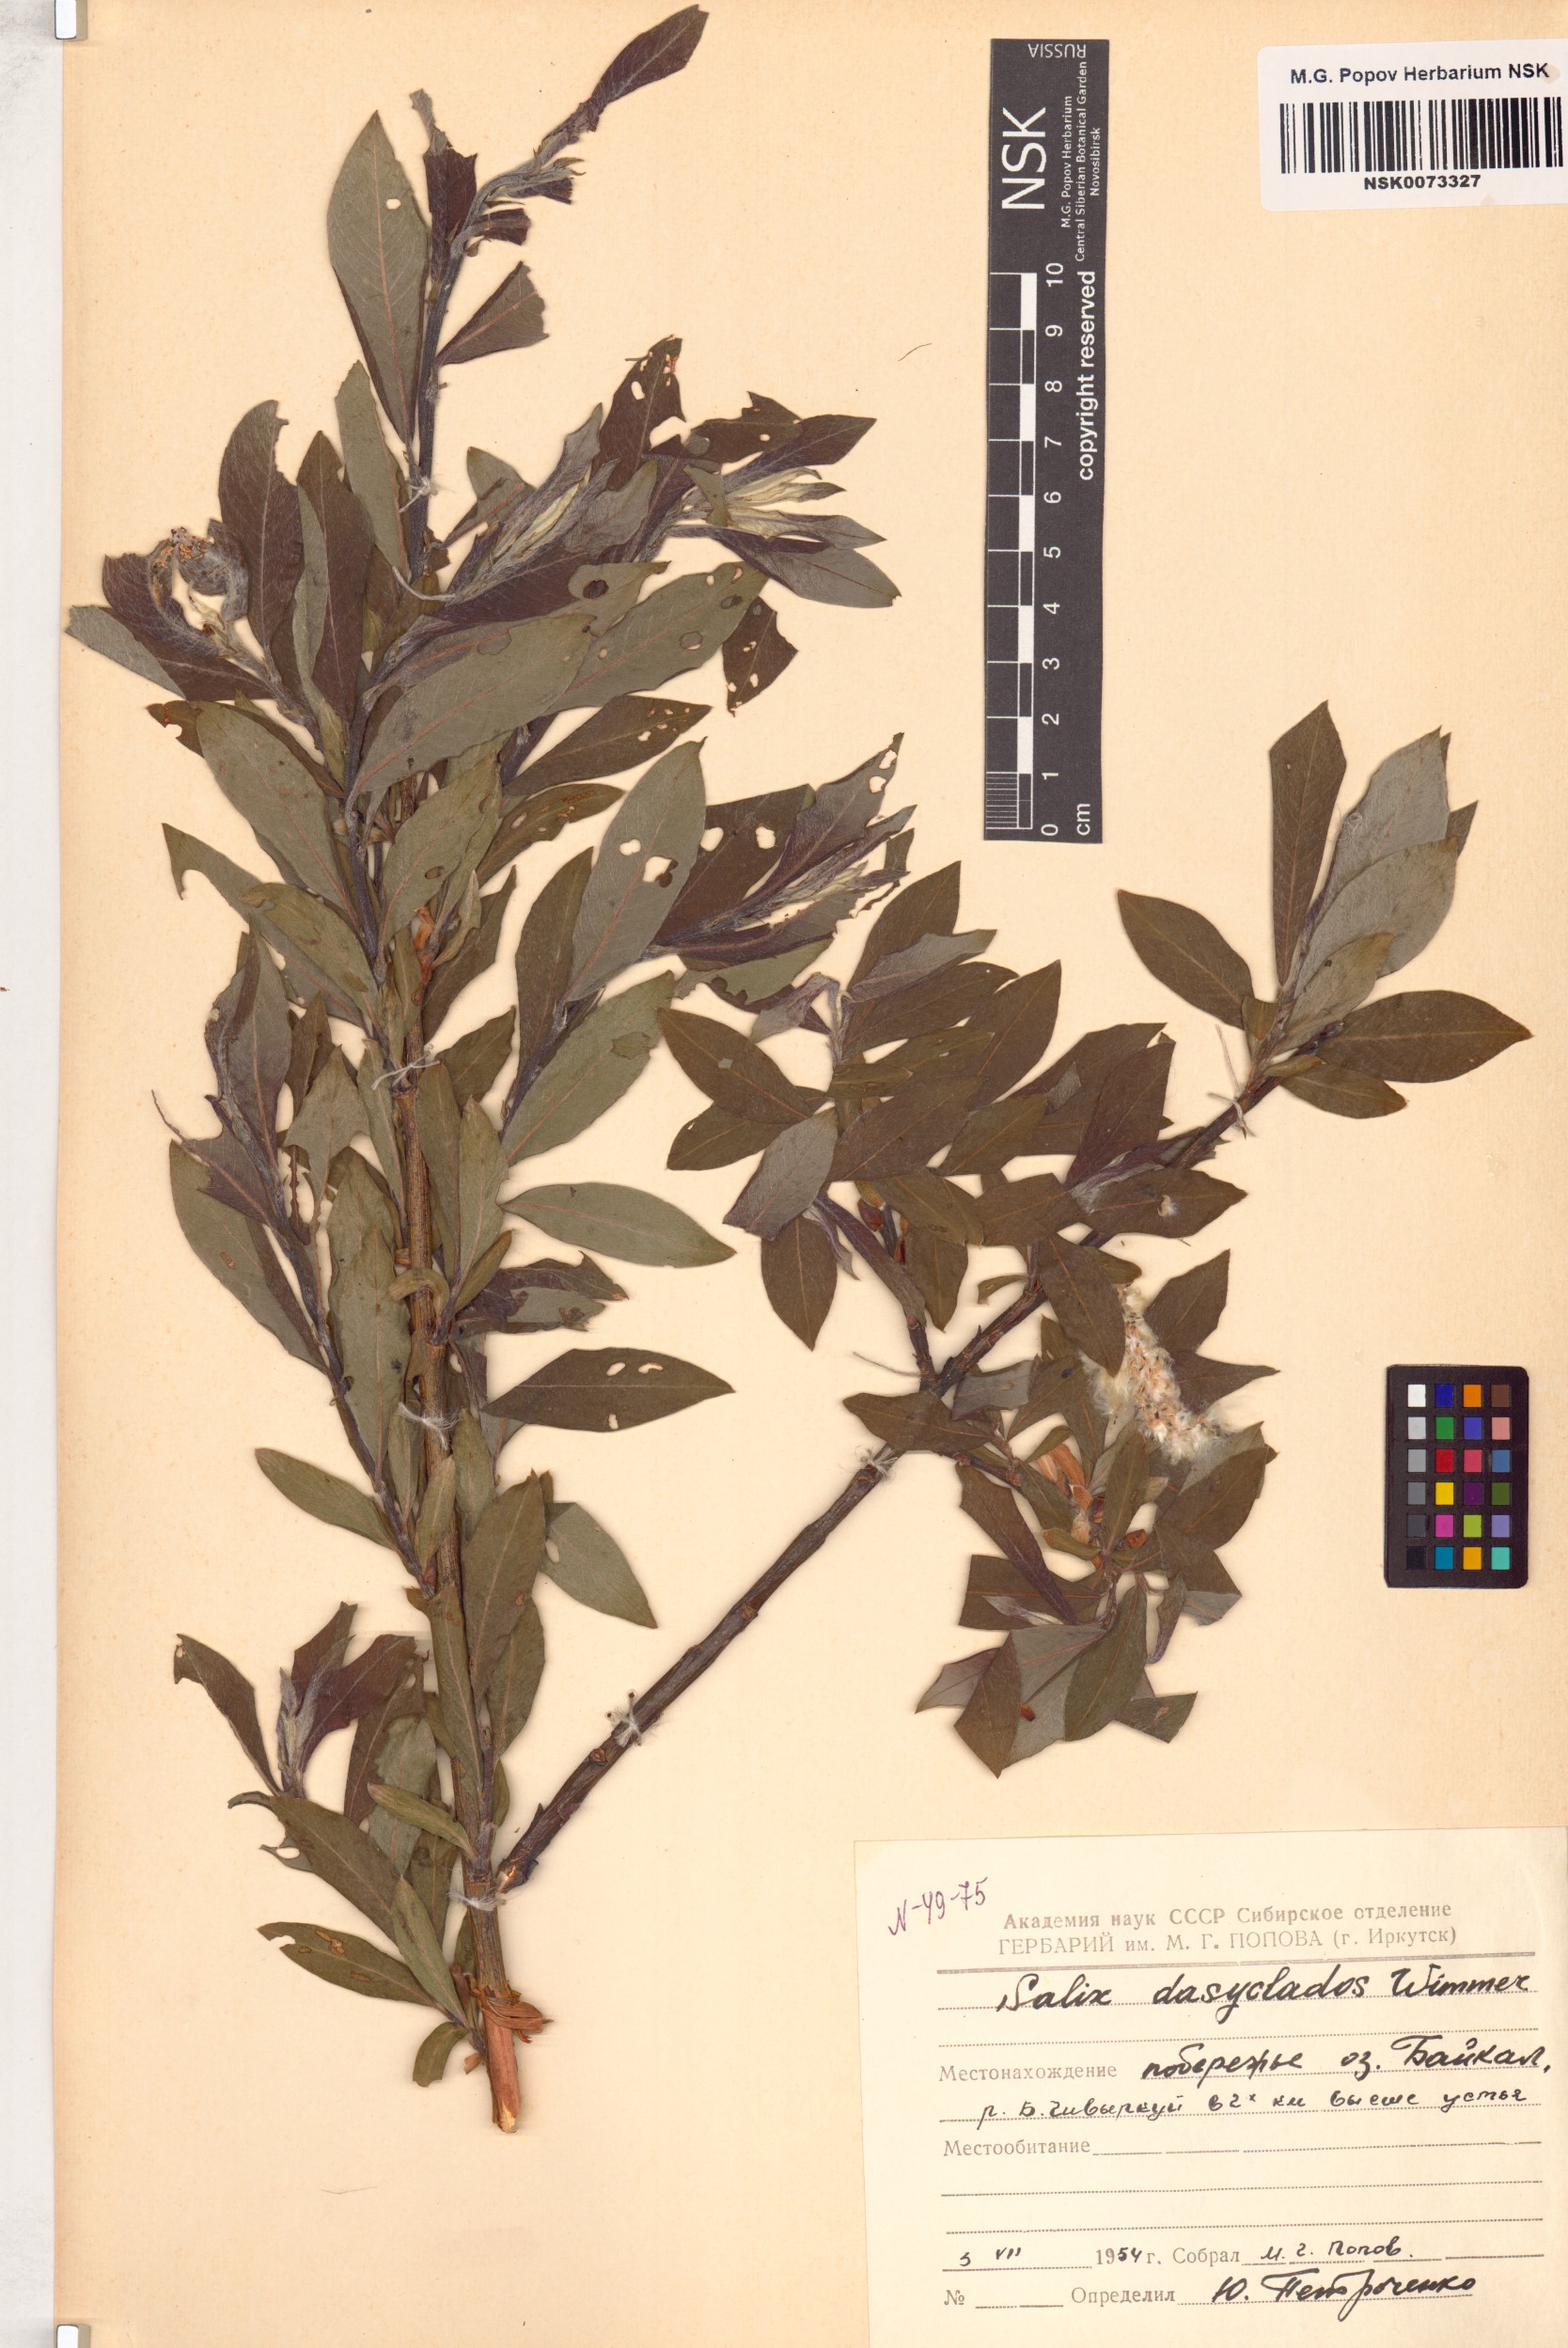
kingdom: Plantae
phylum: Tracheophyta
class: Magnoliopsida
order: Malpighiales
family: Salicaceae
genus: Salix
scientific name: Salix gmelinii
